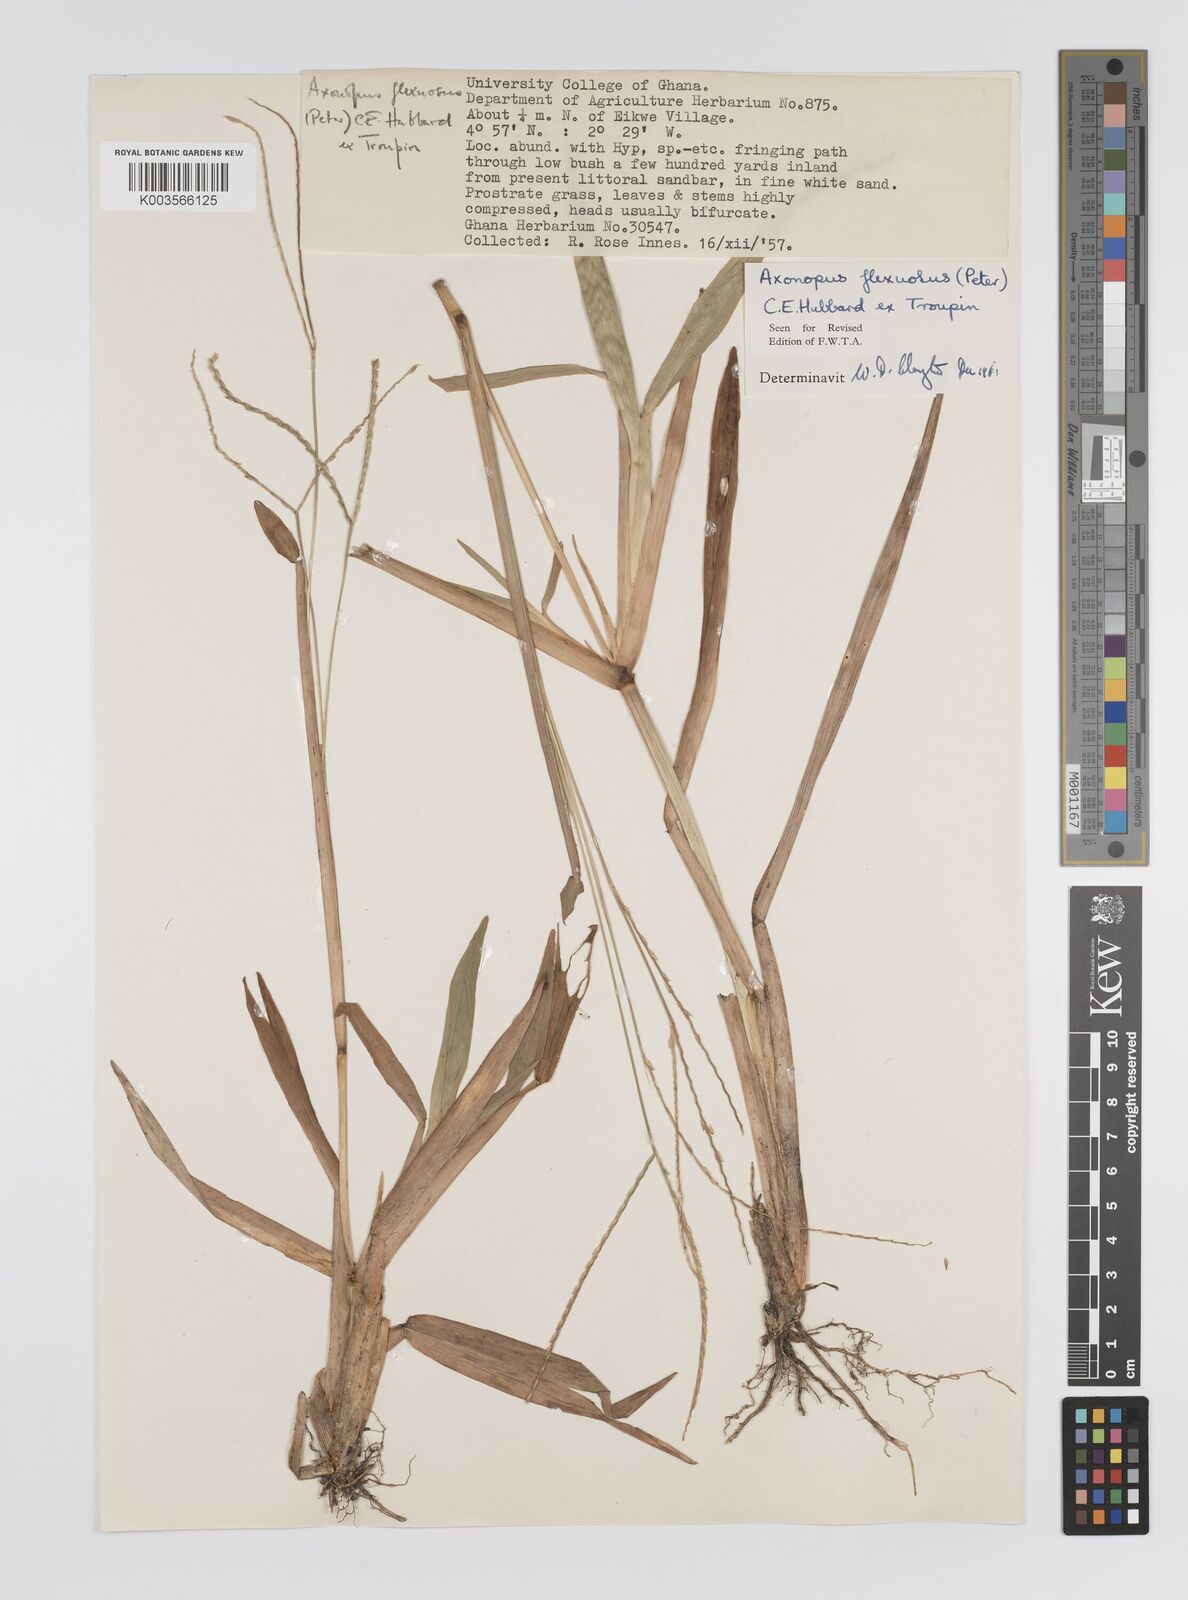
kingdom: Plantae
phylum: Tracheophyta
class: Liliopsida
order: Poales
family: Poaceae
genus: Axonopus
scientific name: Axonopus flexuosus
